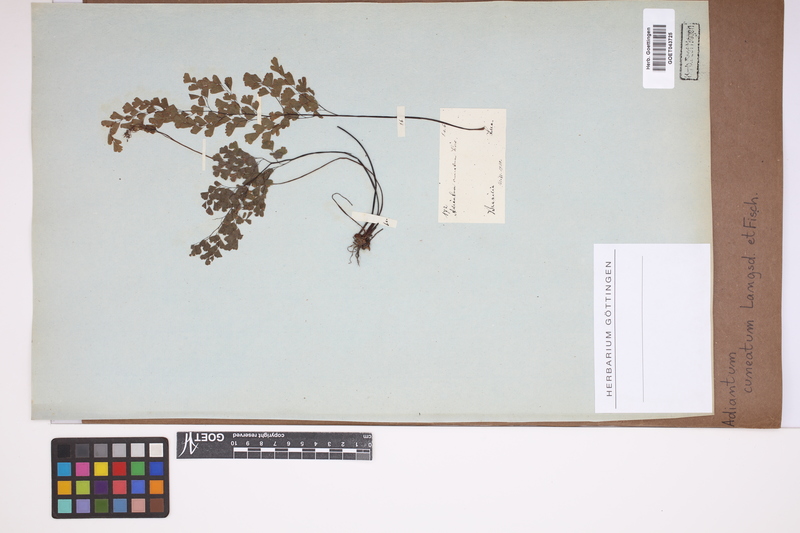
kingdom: Plantae
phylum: Tracheophyta
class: Polypodiopsida
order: Polypodiales
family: Pteridaceae
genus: Adiantum
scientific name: Adiantum raddianum
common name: Delta maidenhair fern
